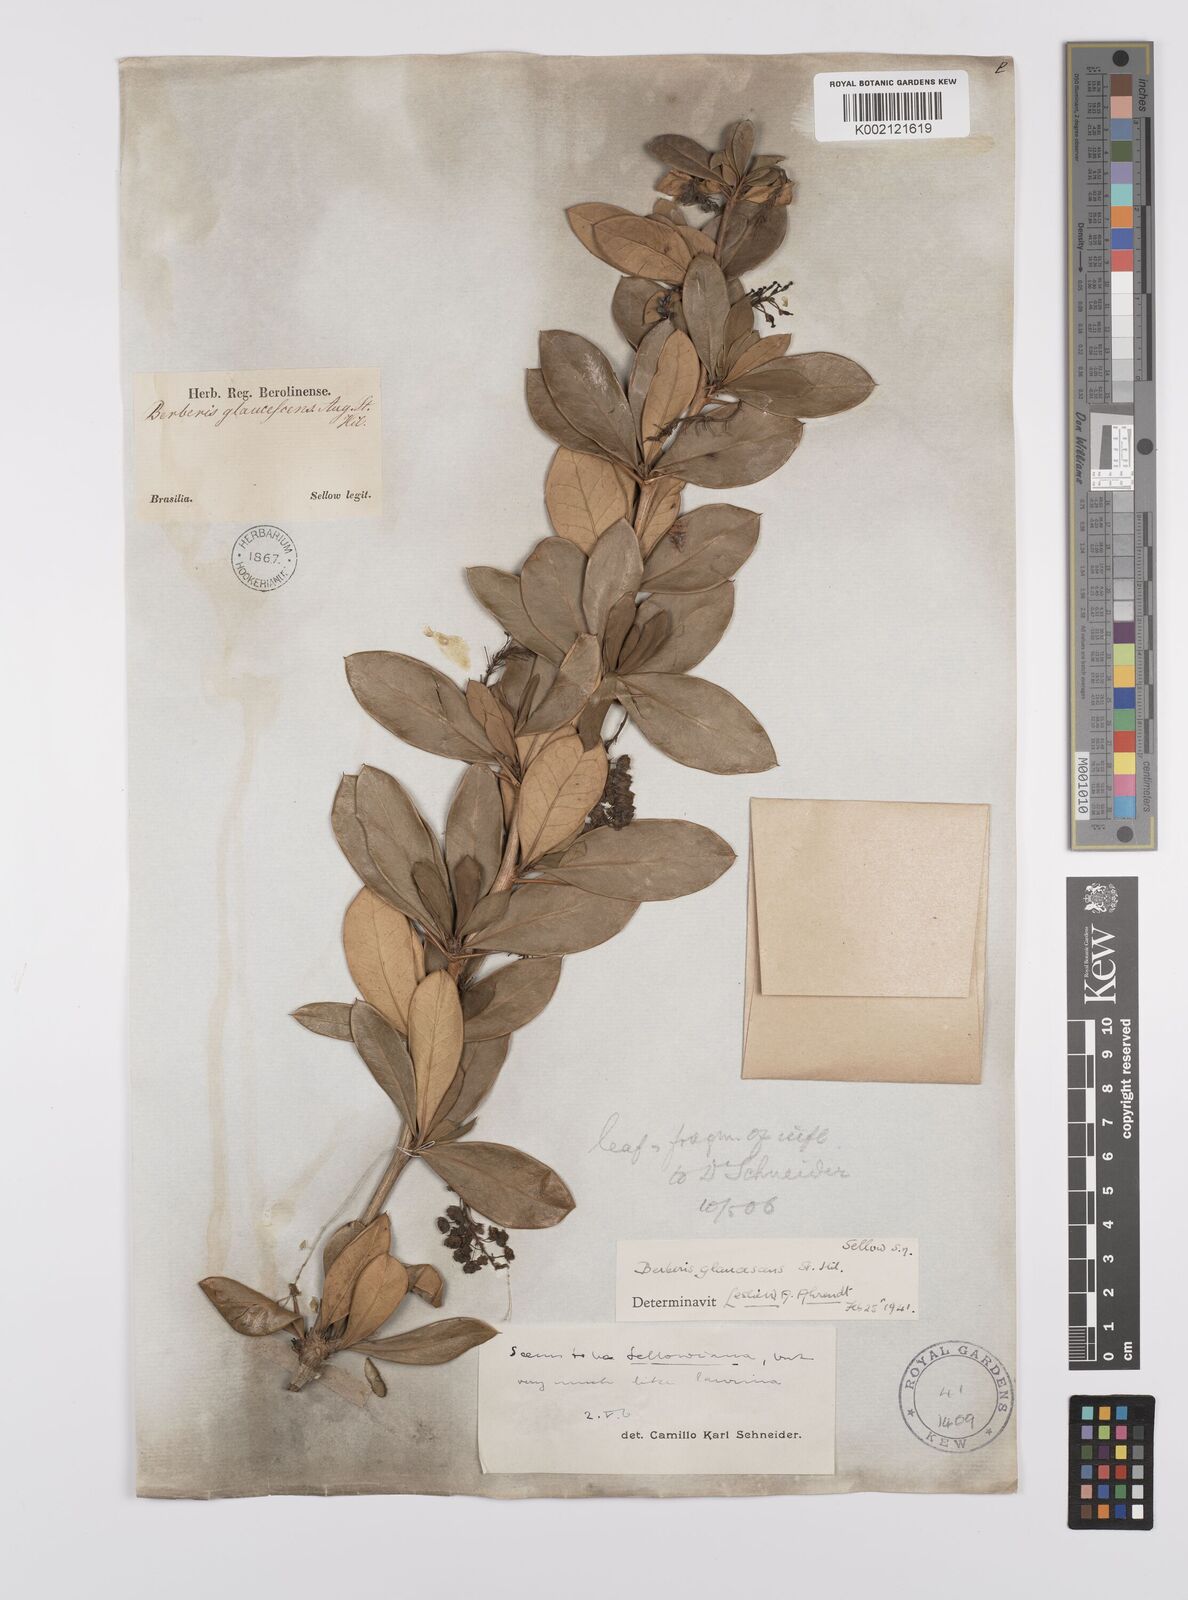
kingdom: Plantae
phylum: Tracheophyta
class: Magnoliopsida
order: Ranunculales
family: Berberidaceae
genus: Berberis
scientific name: Berberis laurina
